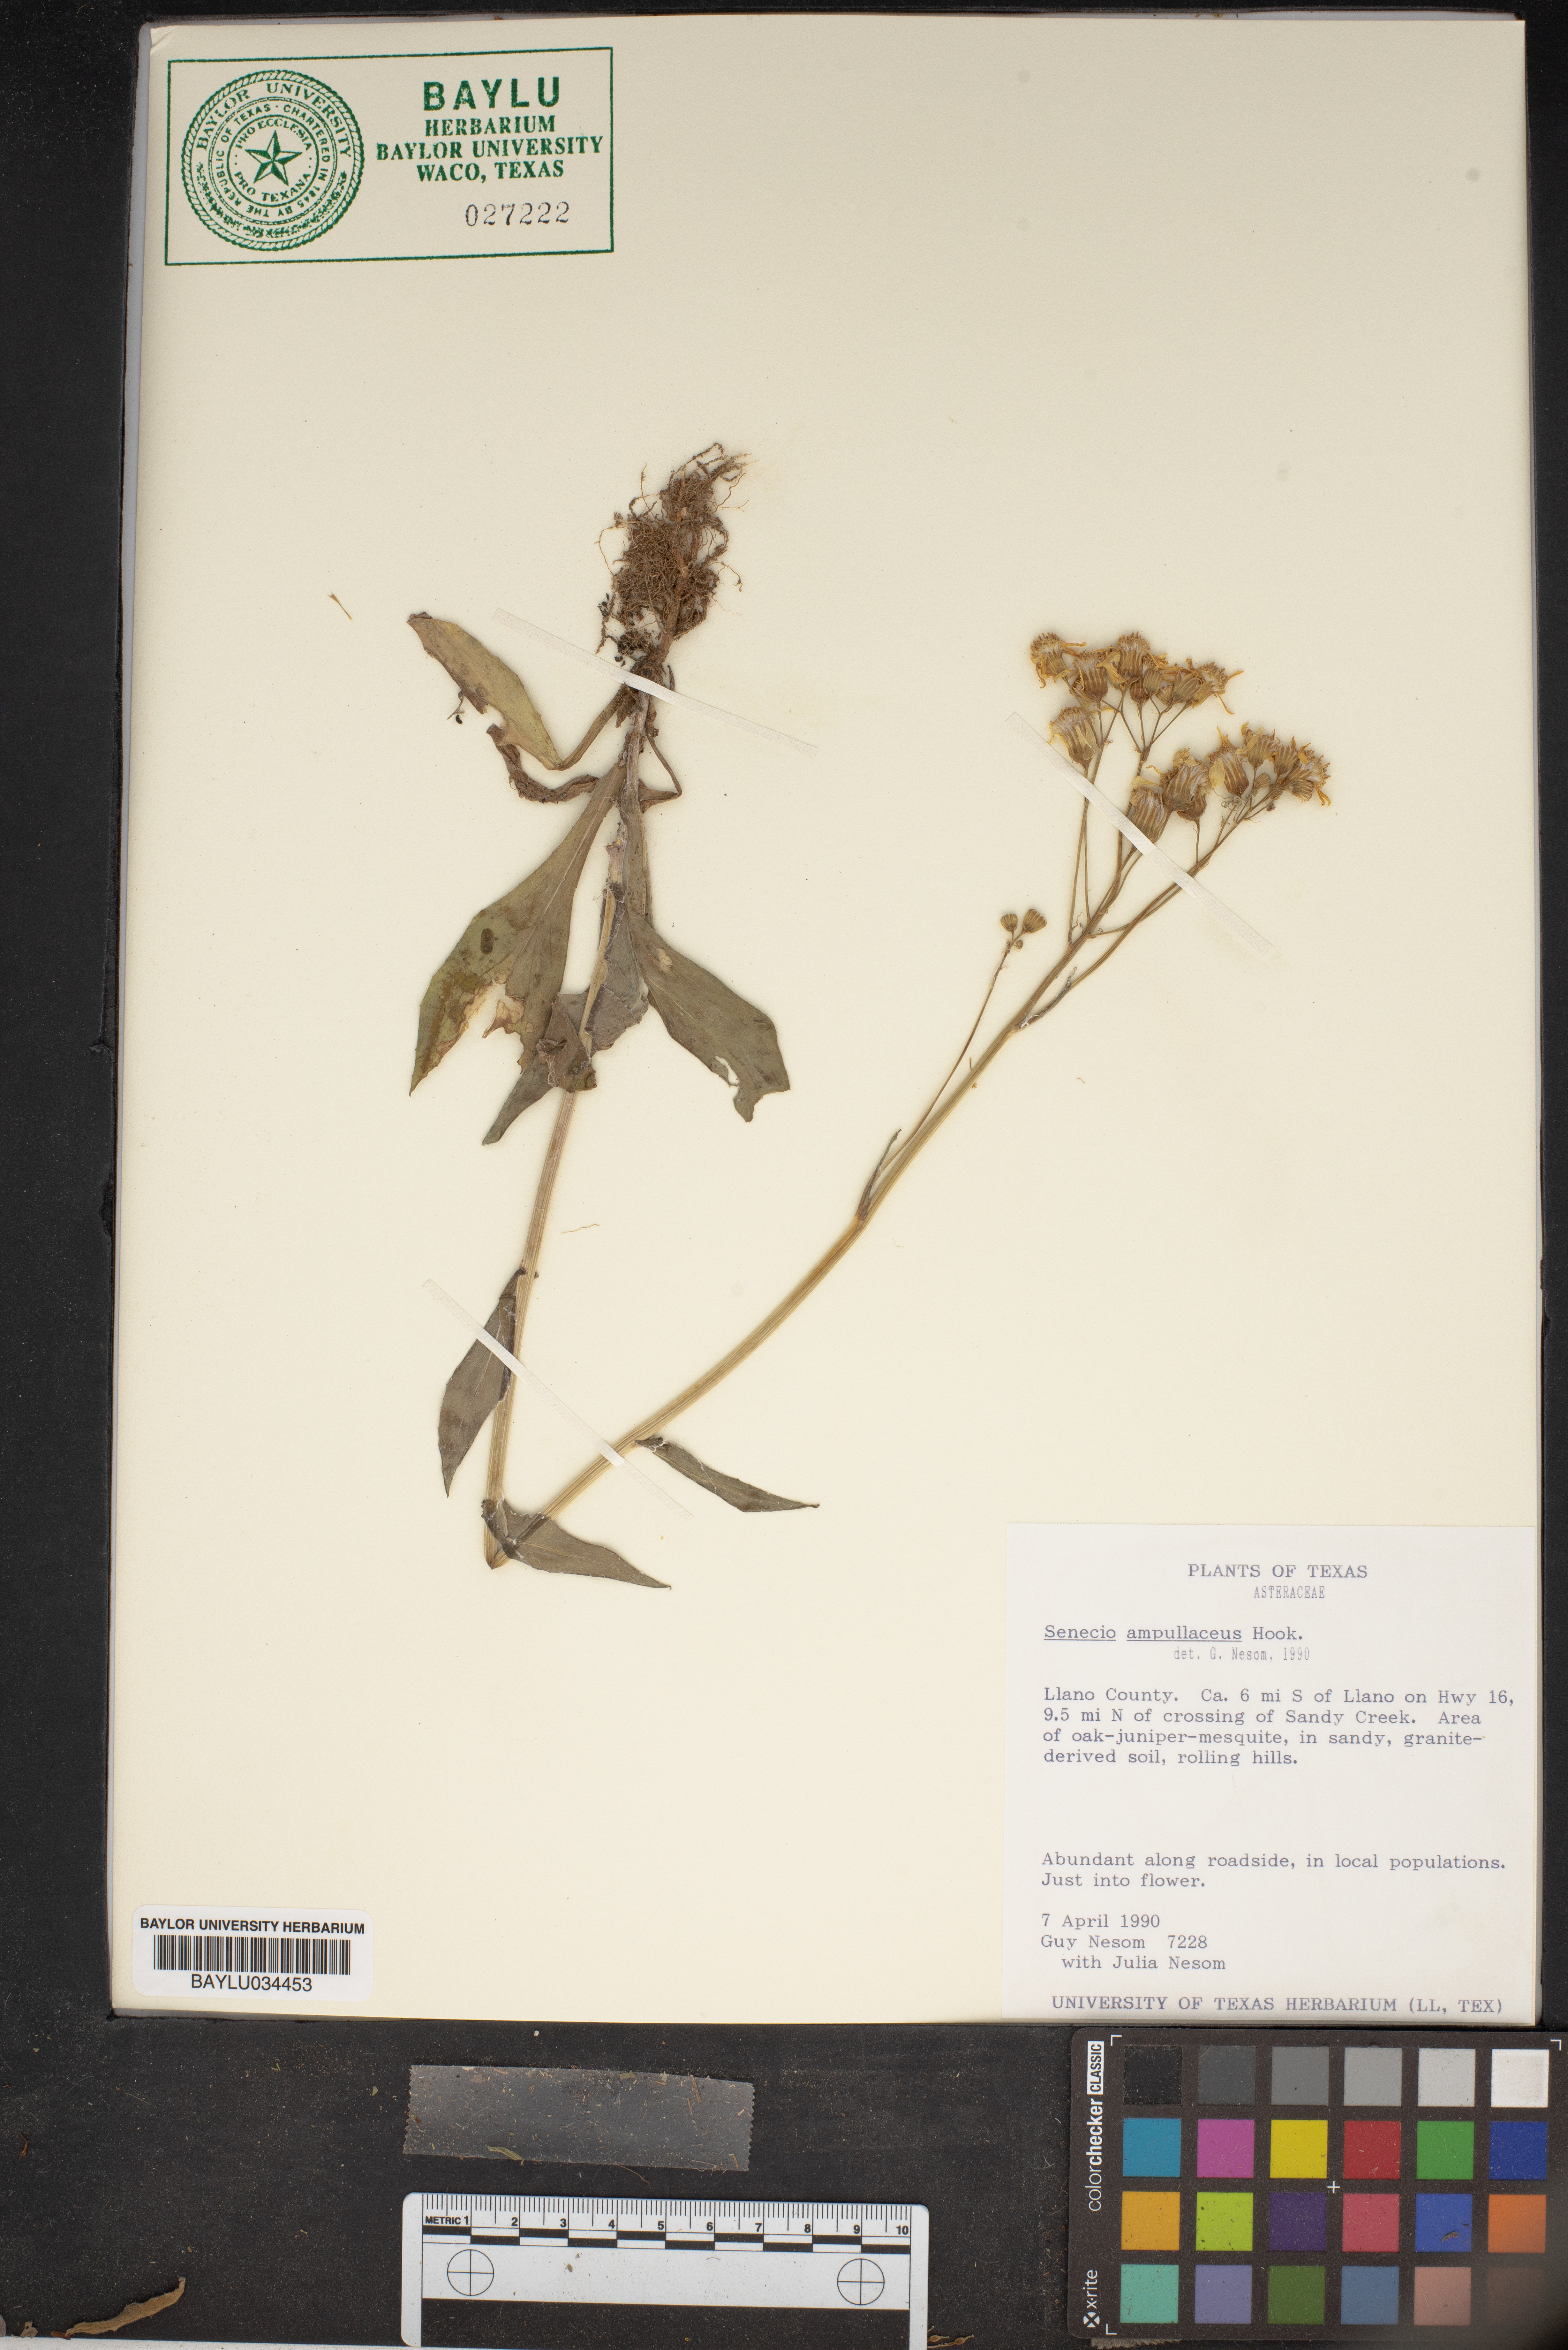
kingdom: Plantae
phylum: Tracheophyta
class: Magnoliopsida
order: Asterales
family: Asteraceae
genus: Senecio
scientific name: Senecio ampullaceus
